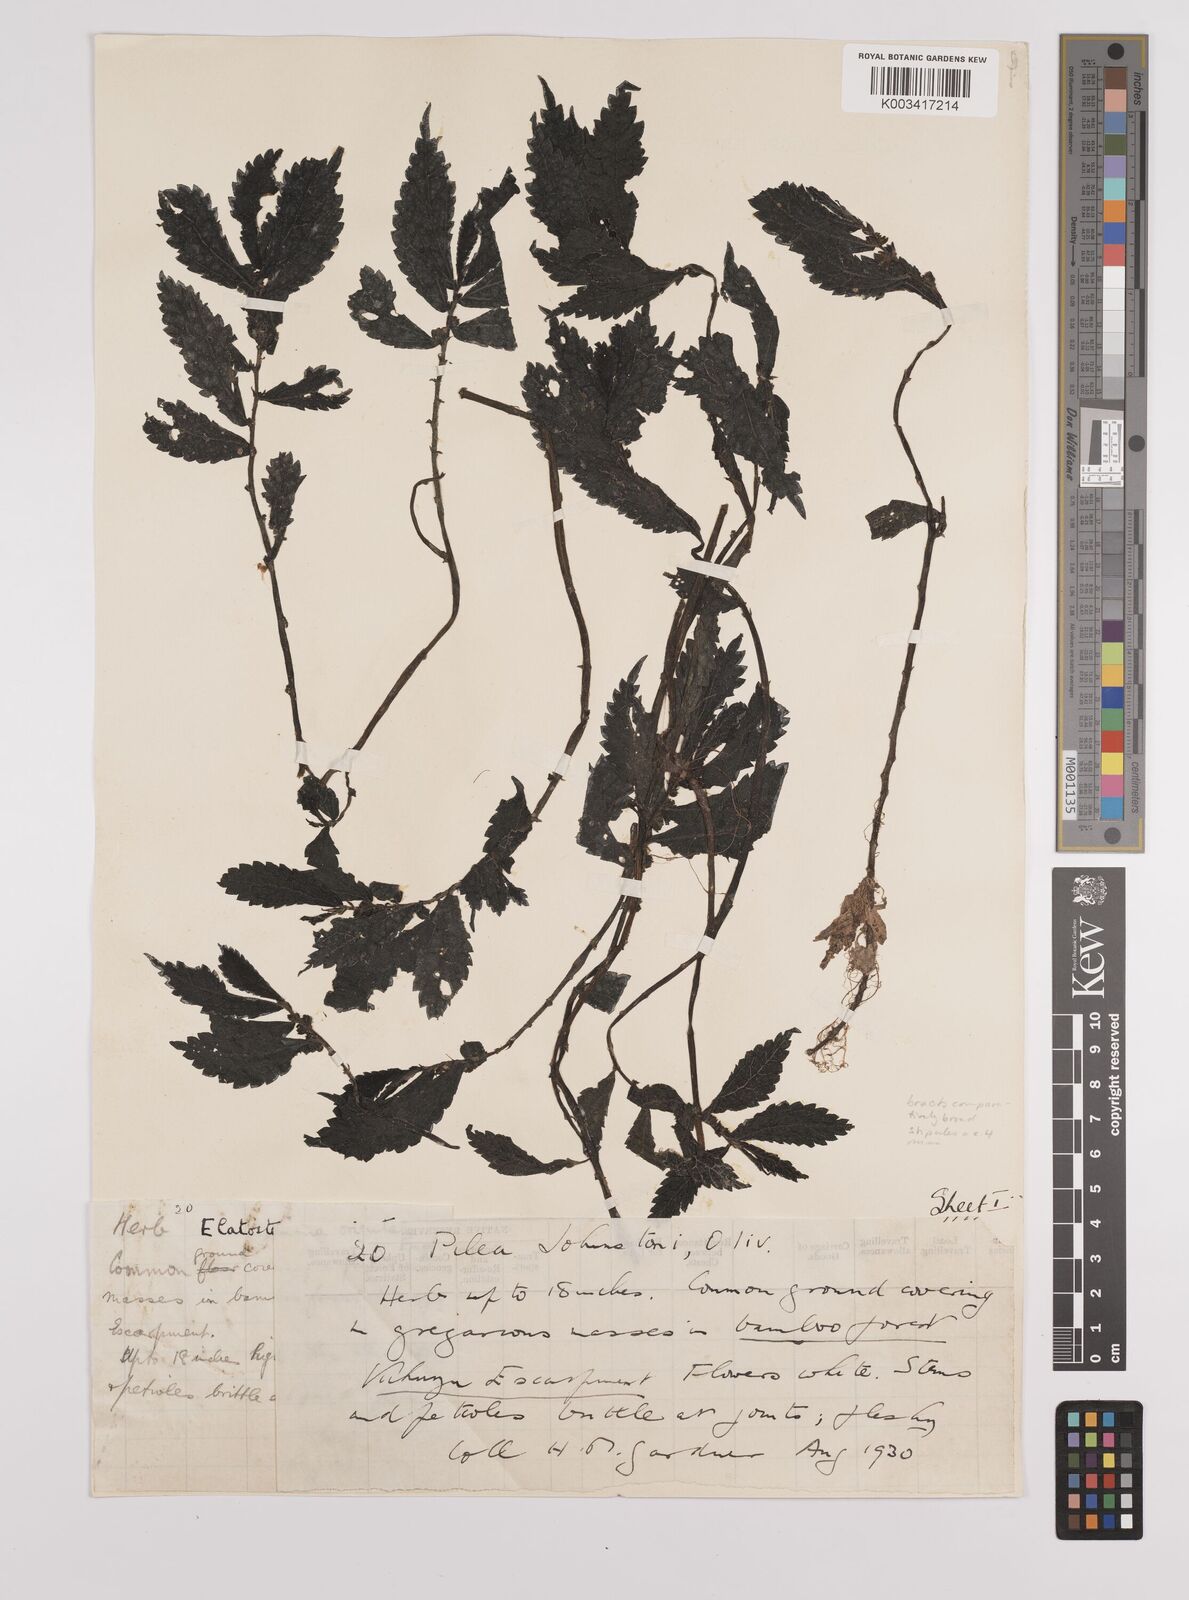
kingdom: Plantae
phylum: Tracheophyta
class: Magnoliopsida
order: Rosales
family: Urticaceae
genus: Elatostema
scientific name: Elatostema monticola
